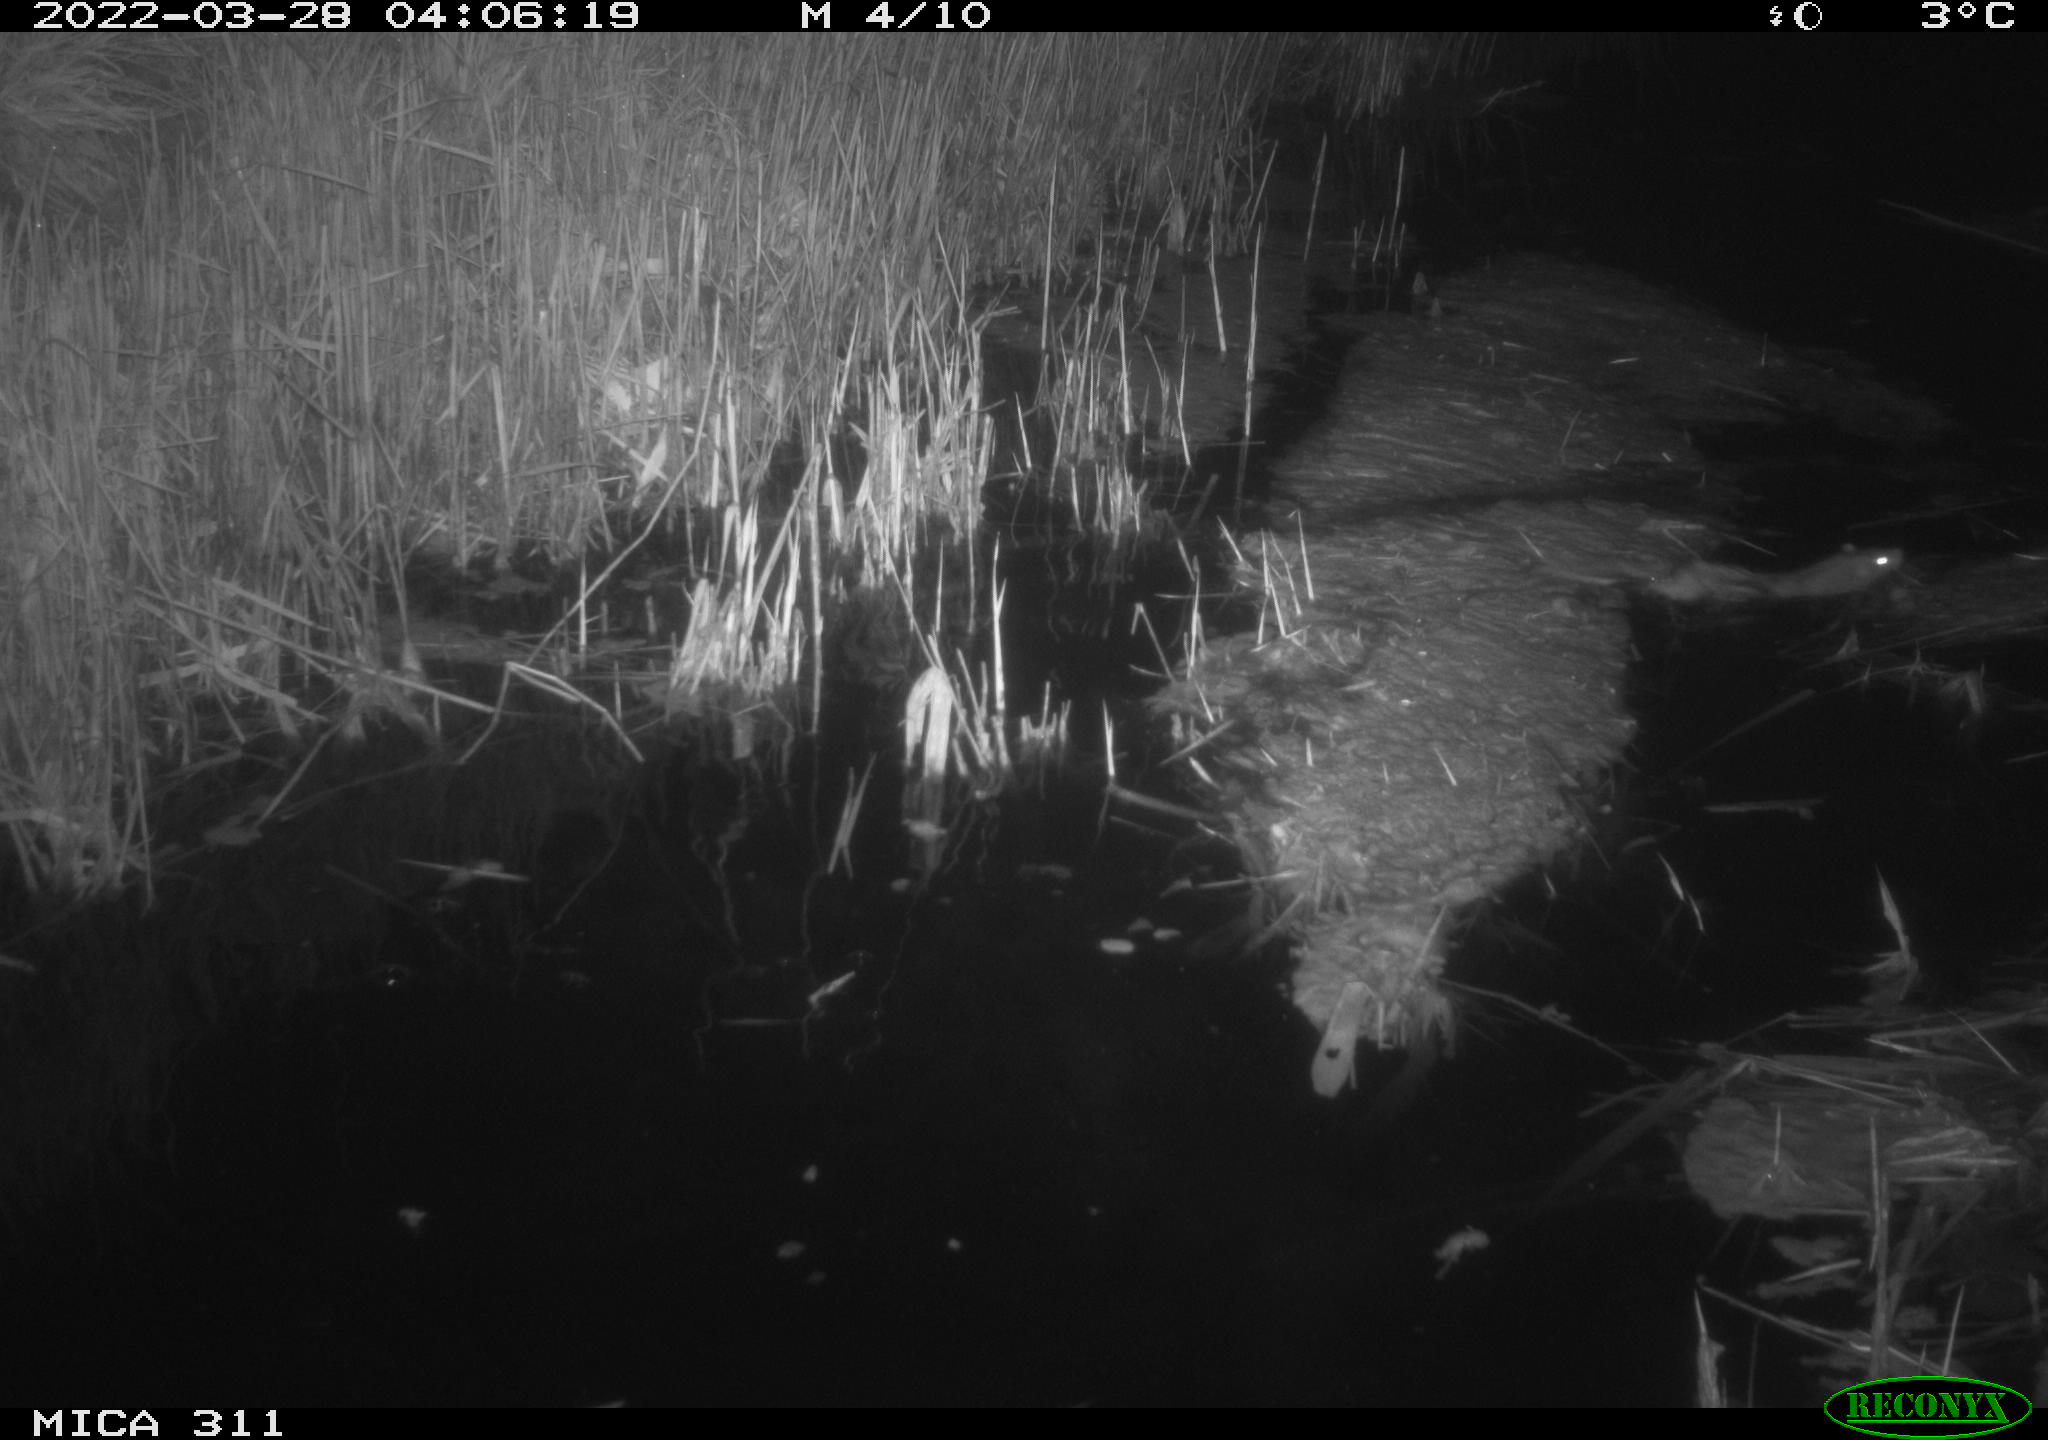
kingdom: Animalia
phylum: Chordata
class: Mammalia
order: Rodentia
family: Muridae
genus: Rattus
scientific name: Rattus norvegicus
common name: Brown rat
